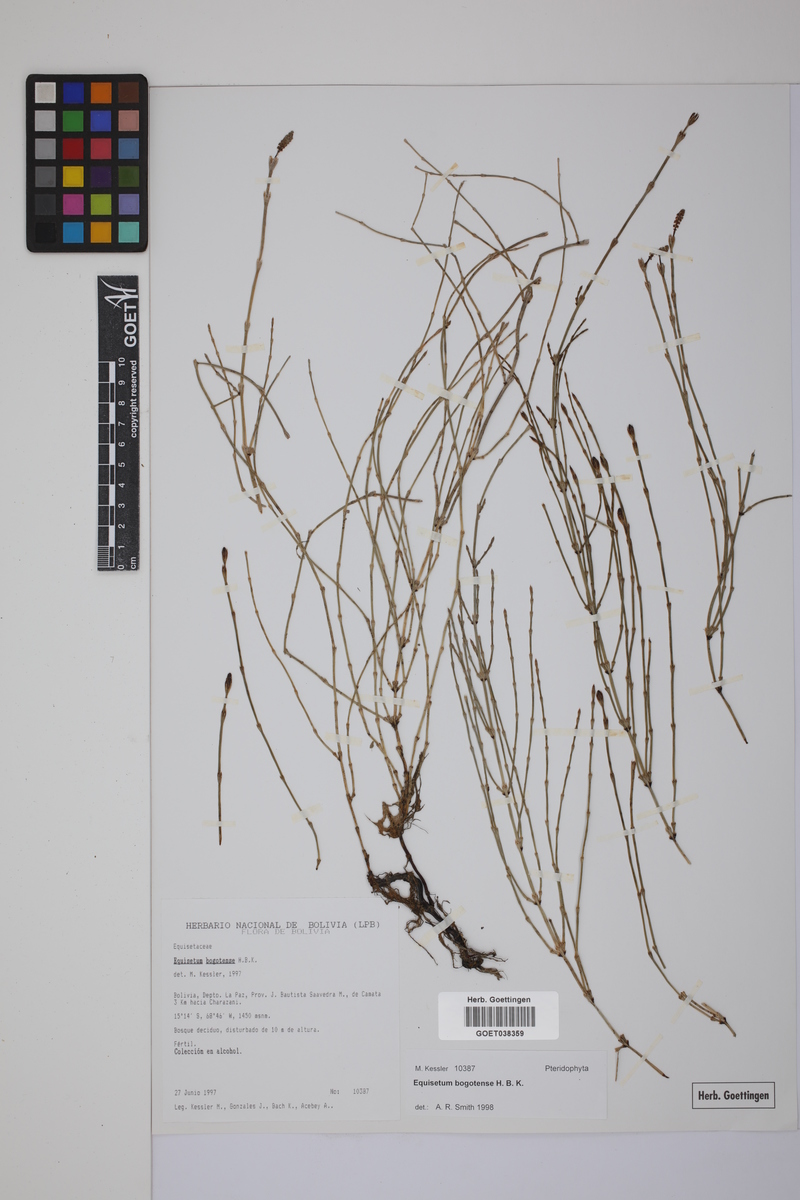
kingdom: Plantae
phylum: Tracheophyta
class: Polypodiopsida
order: Equisetales
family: Equisetaceae
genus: Equisetum
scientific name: Equisetum bogotense
